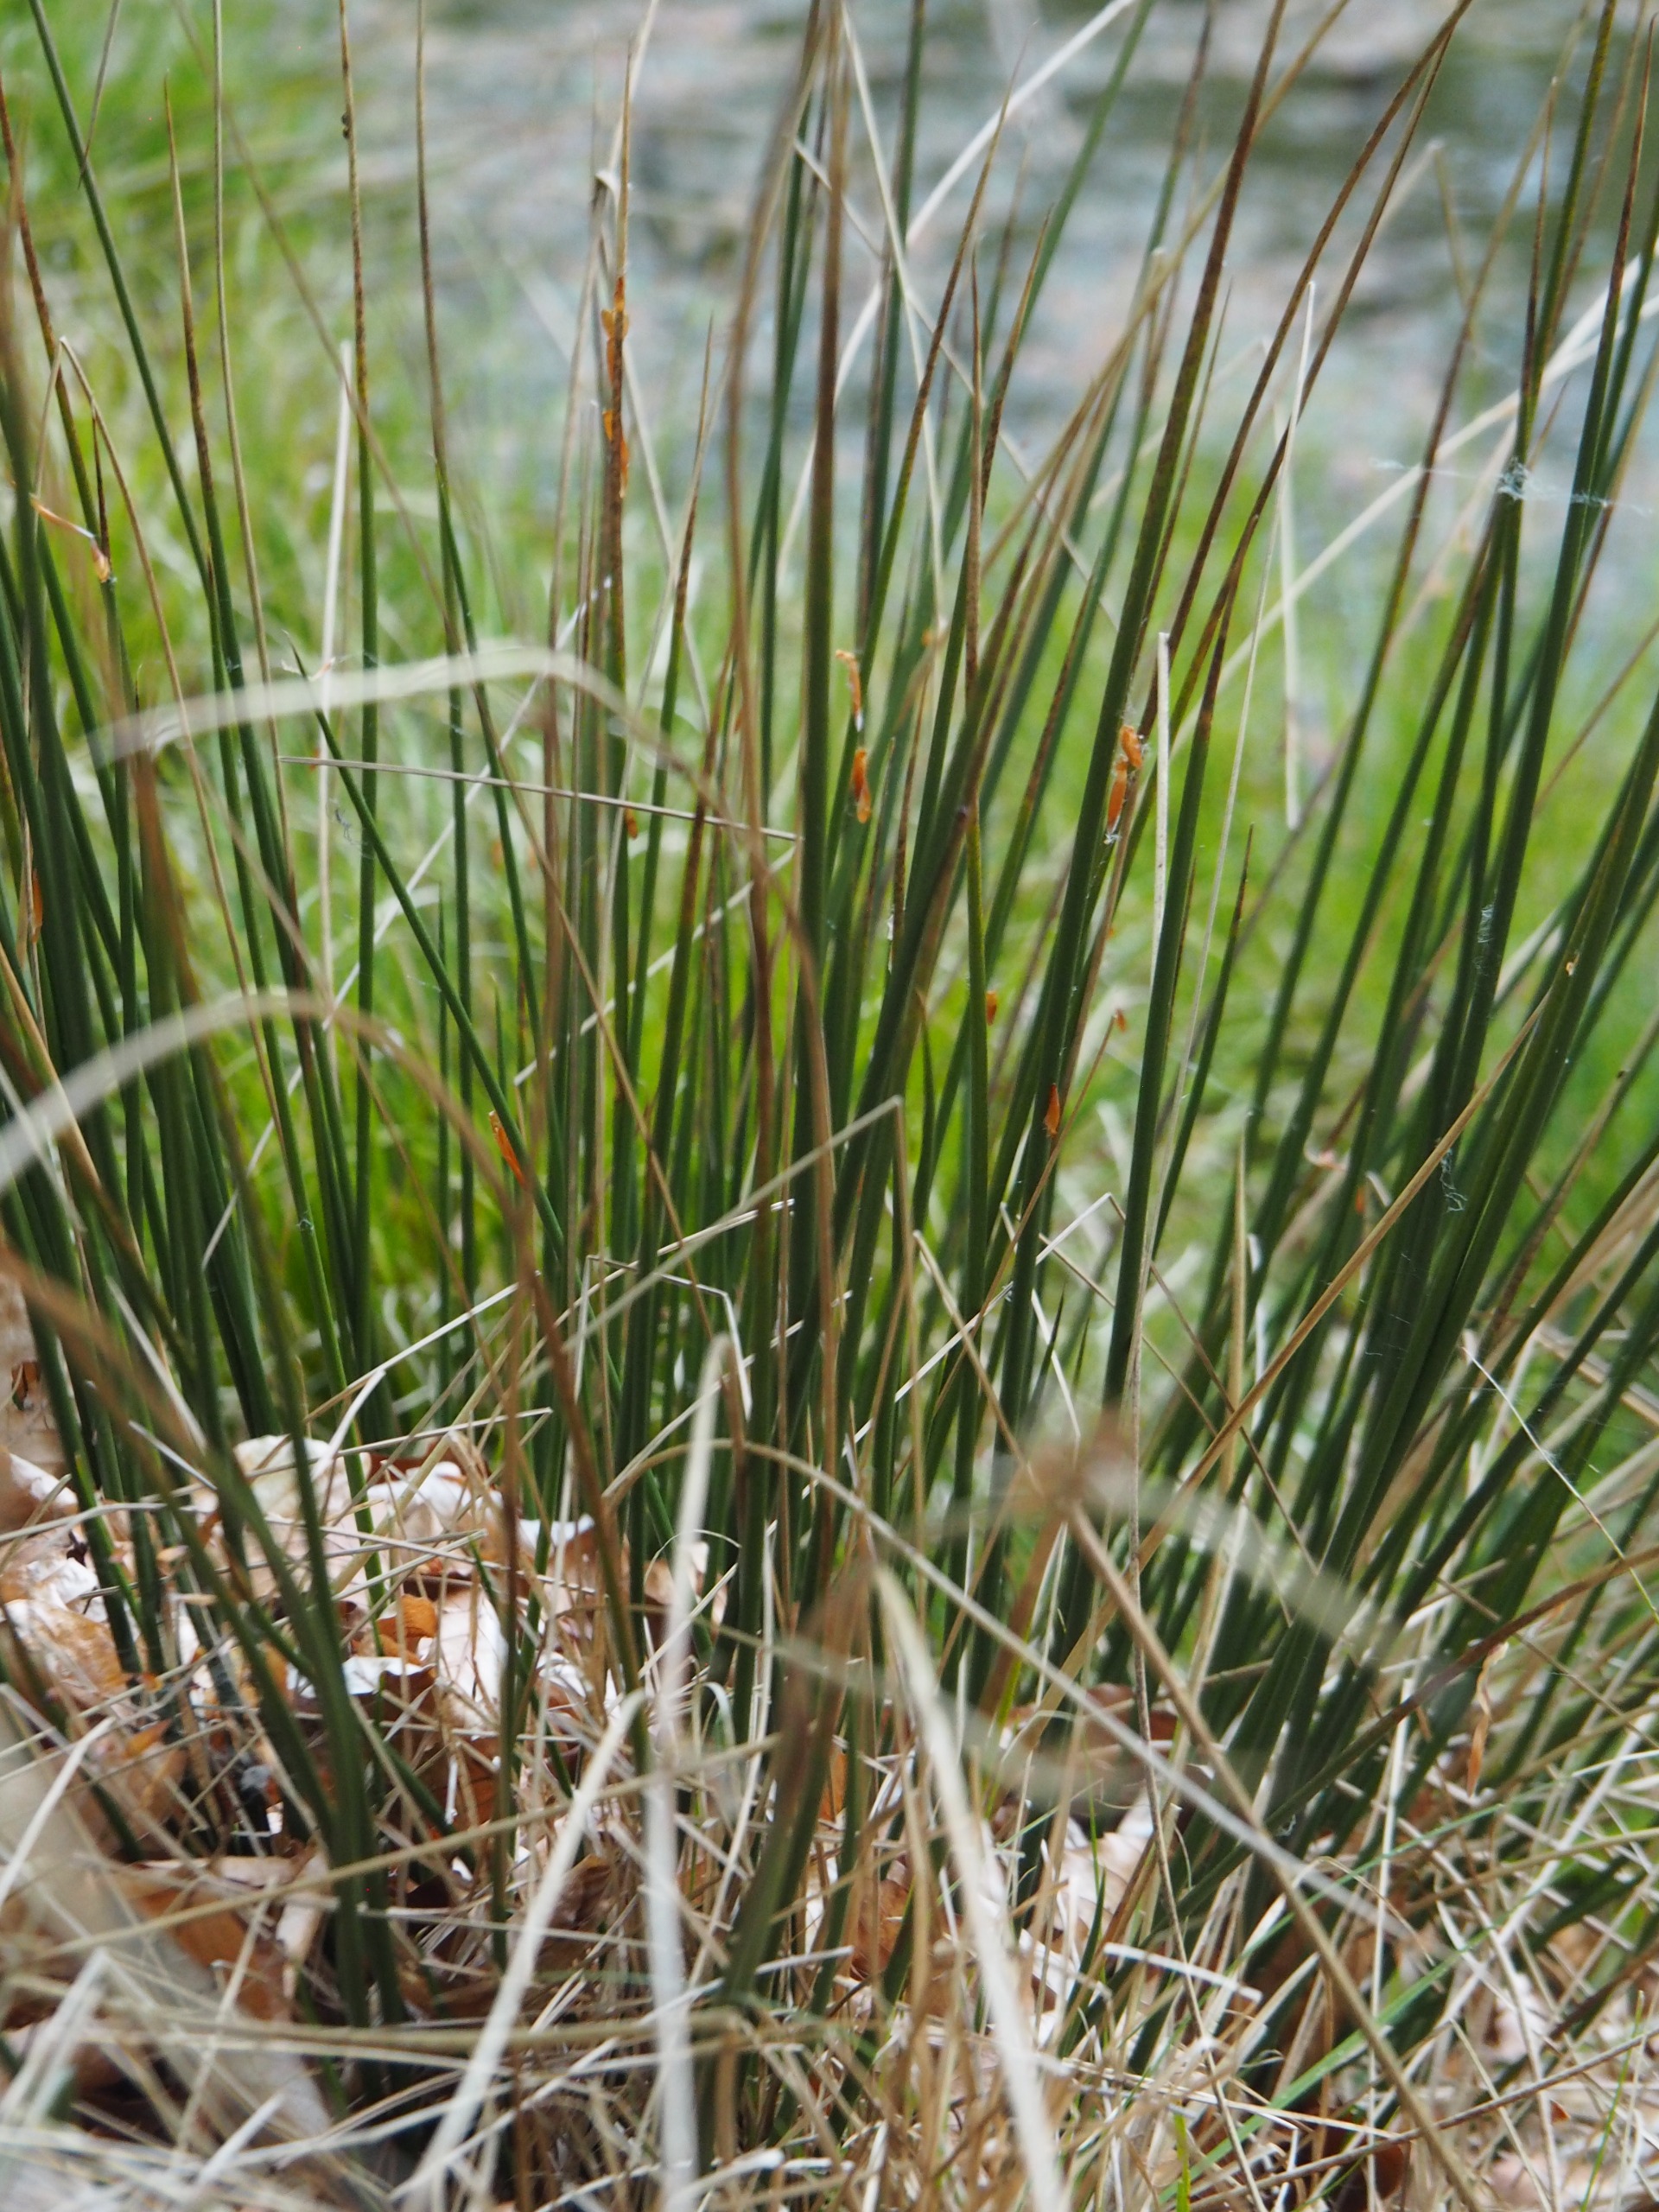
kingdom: Plantae
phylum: Tracheophyta
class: Liliopsida
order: Poales
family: Juncaceae
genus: Juncus
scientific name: Juncus effusus
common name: Lyse-siv
